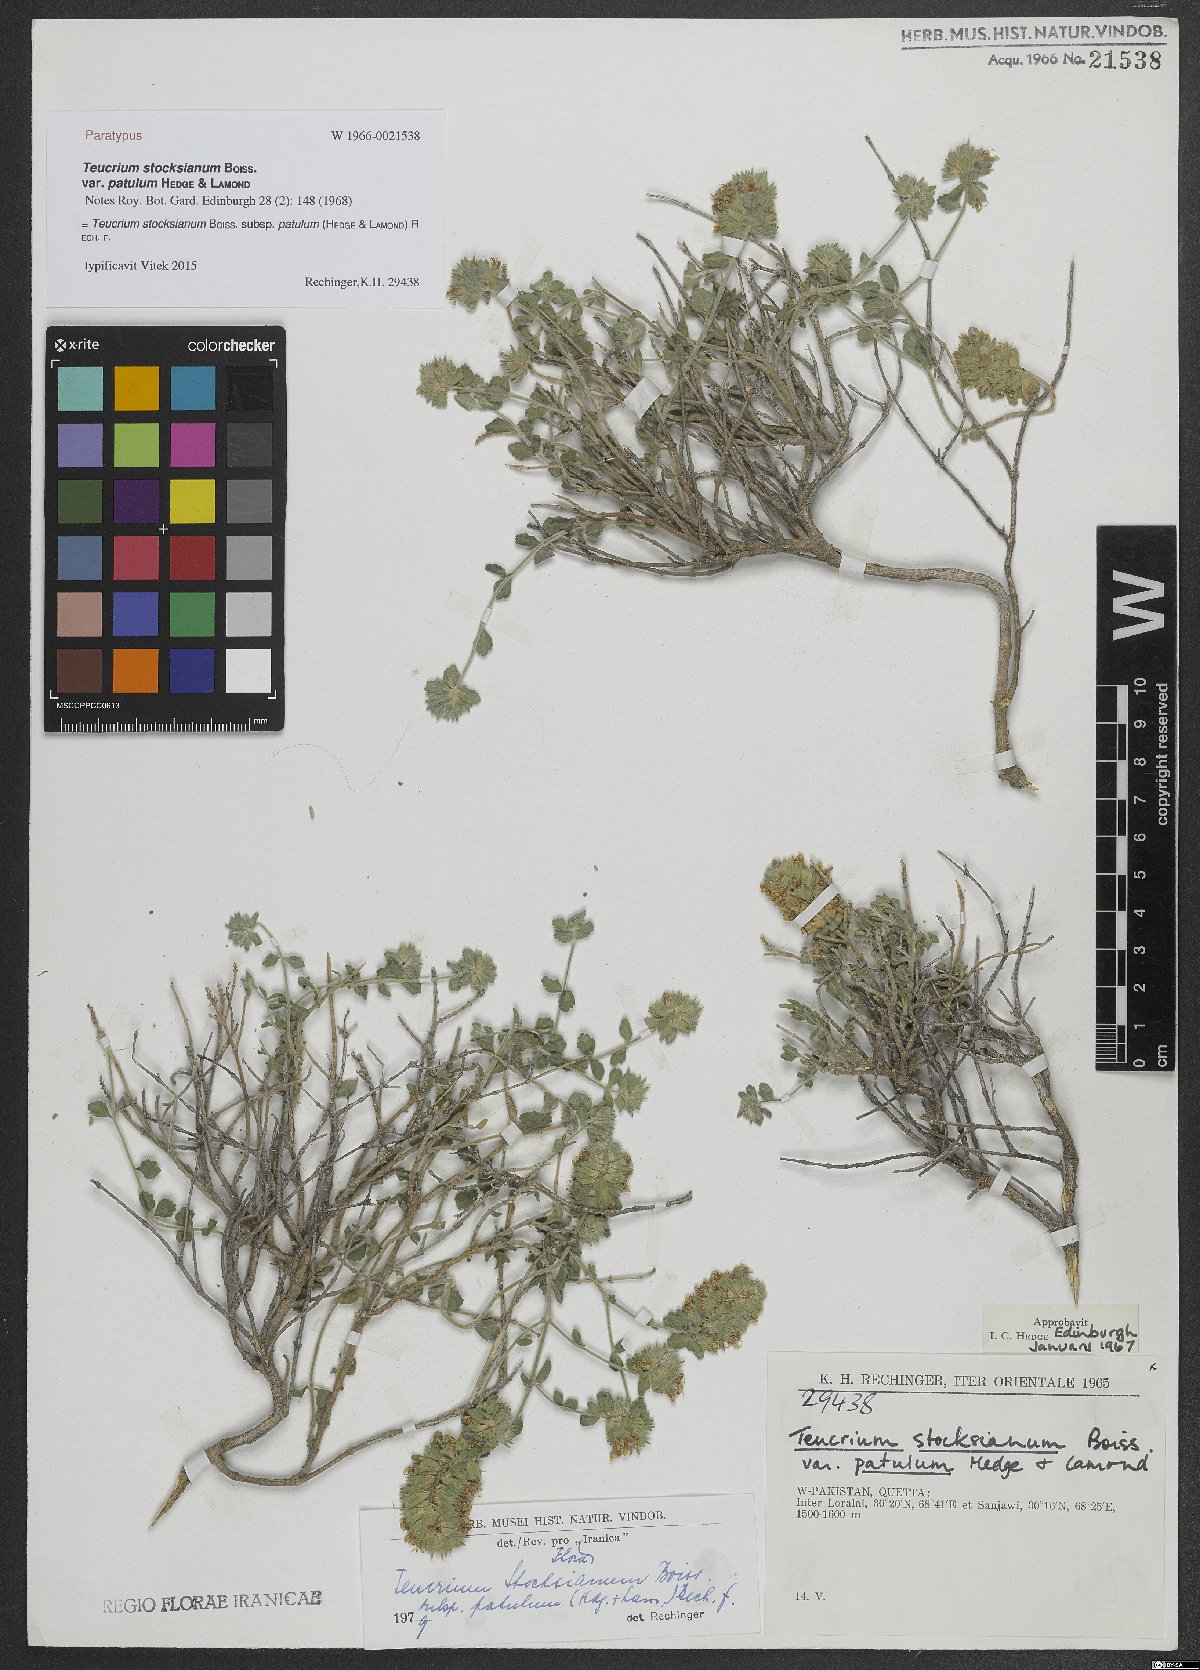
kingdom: Plantae
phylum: Tracheophyta
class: Magnoliopsida
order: Lamiales
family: Lamiaceae
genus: Teucrium
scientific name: Teucrium stocksianum
